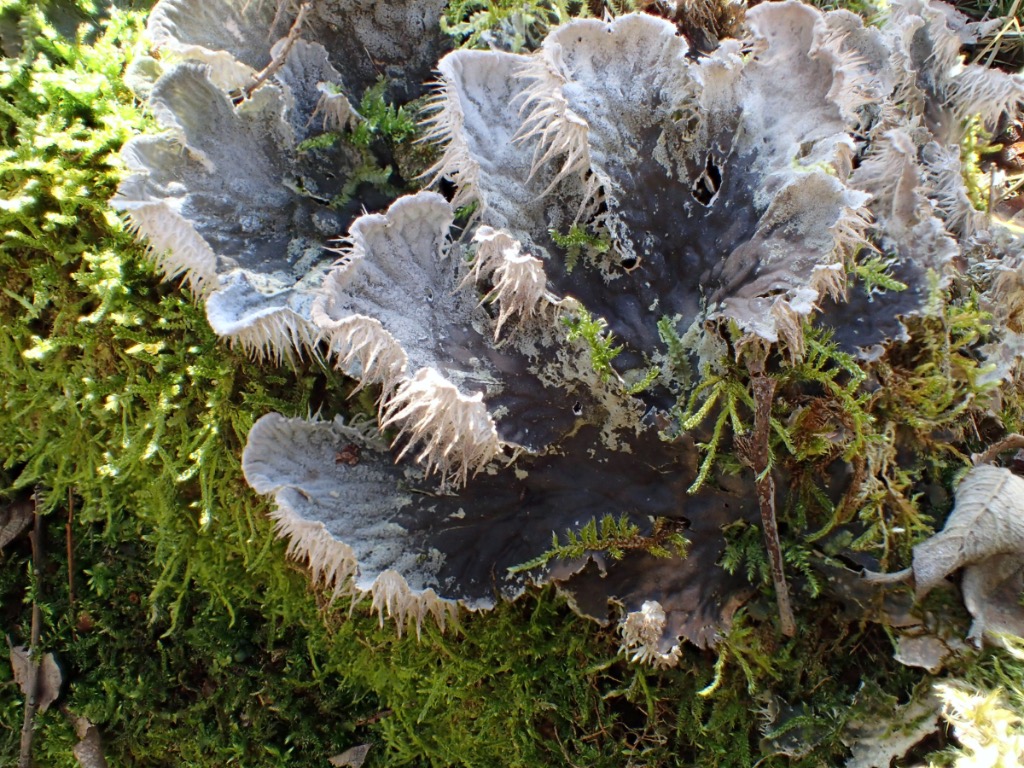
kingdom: Fungi
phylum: Ascomycota
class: Lecanoromycetes
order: Peltigerales
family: Peltigeraceae
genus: Peltigera
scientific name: Peltigera membranacea
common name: tynd skjoldlav
